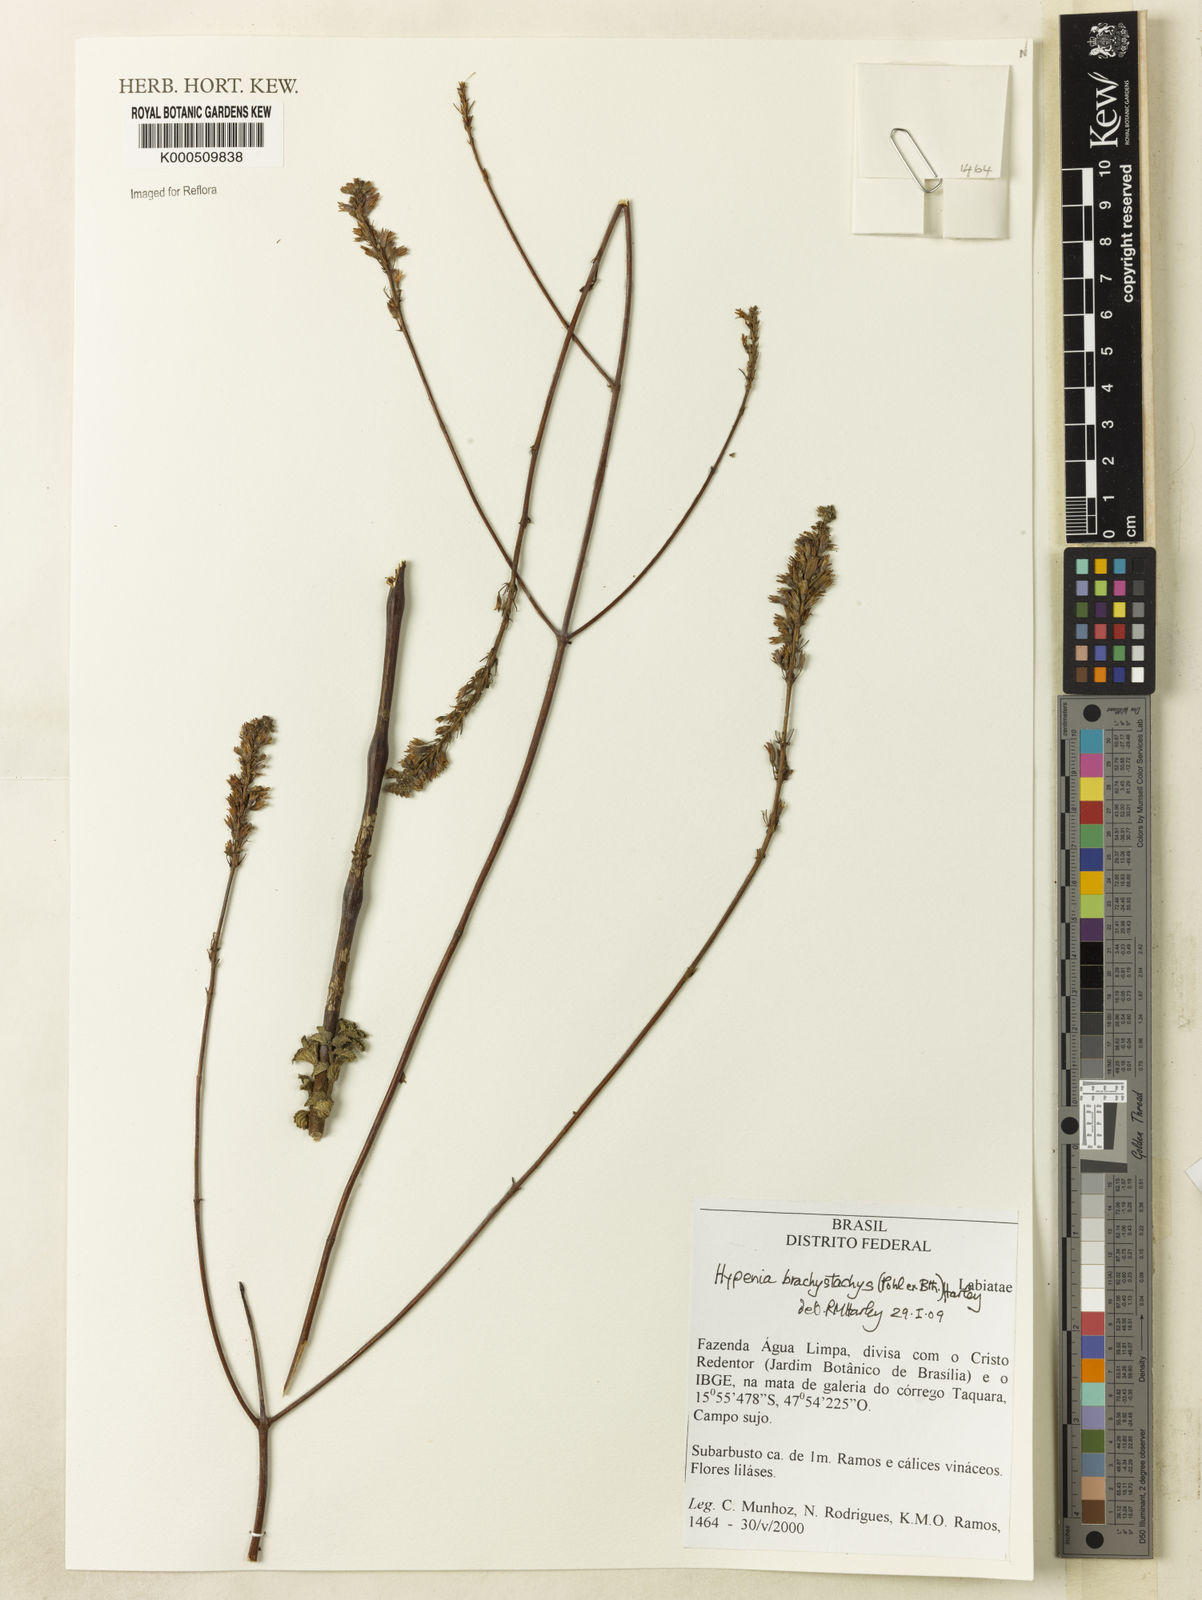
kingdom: Plantae
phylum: Tracheophyta
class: Magnoliopsida
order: Lamiales
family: Lamiaceae
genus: Hypenia
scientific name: Hypenia brachystachys
